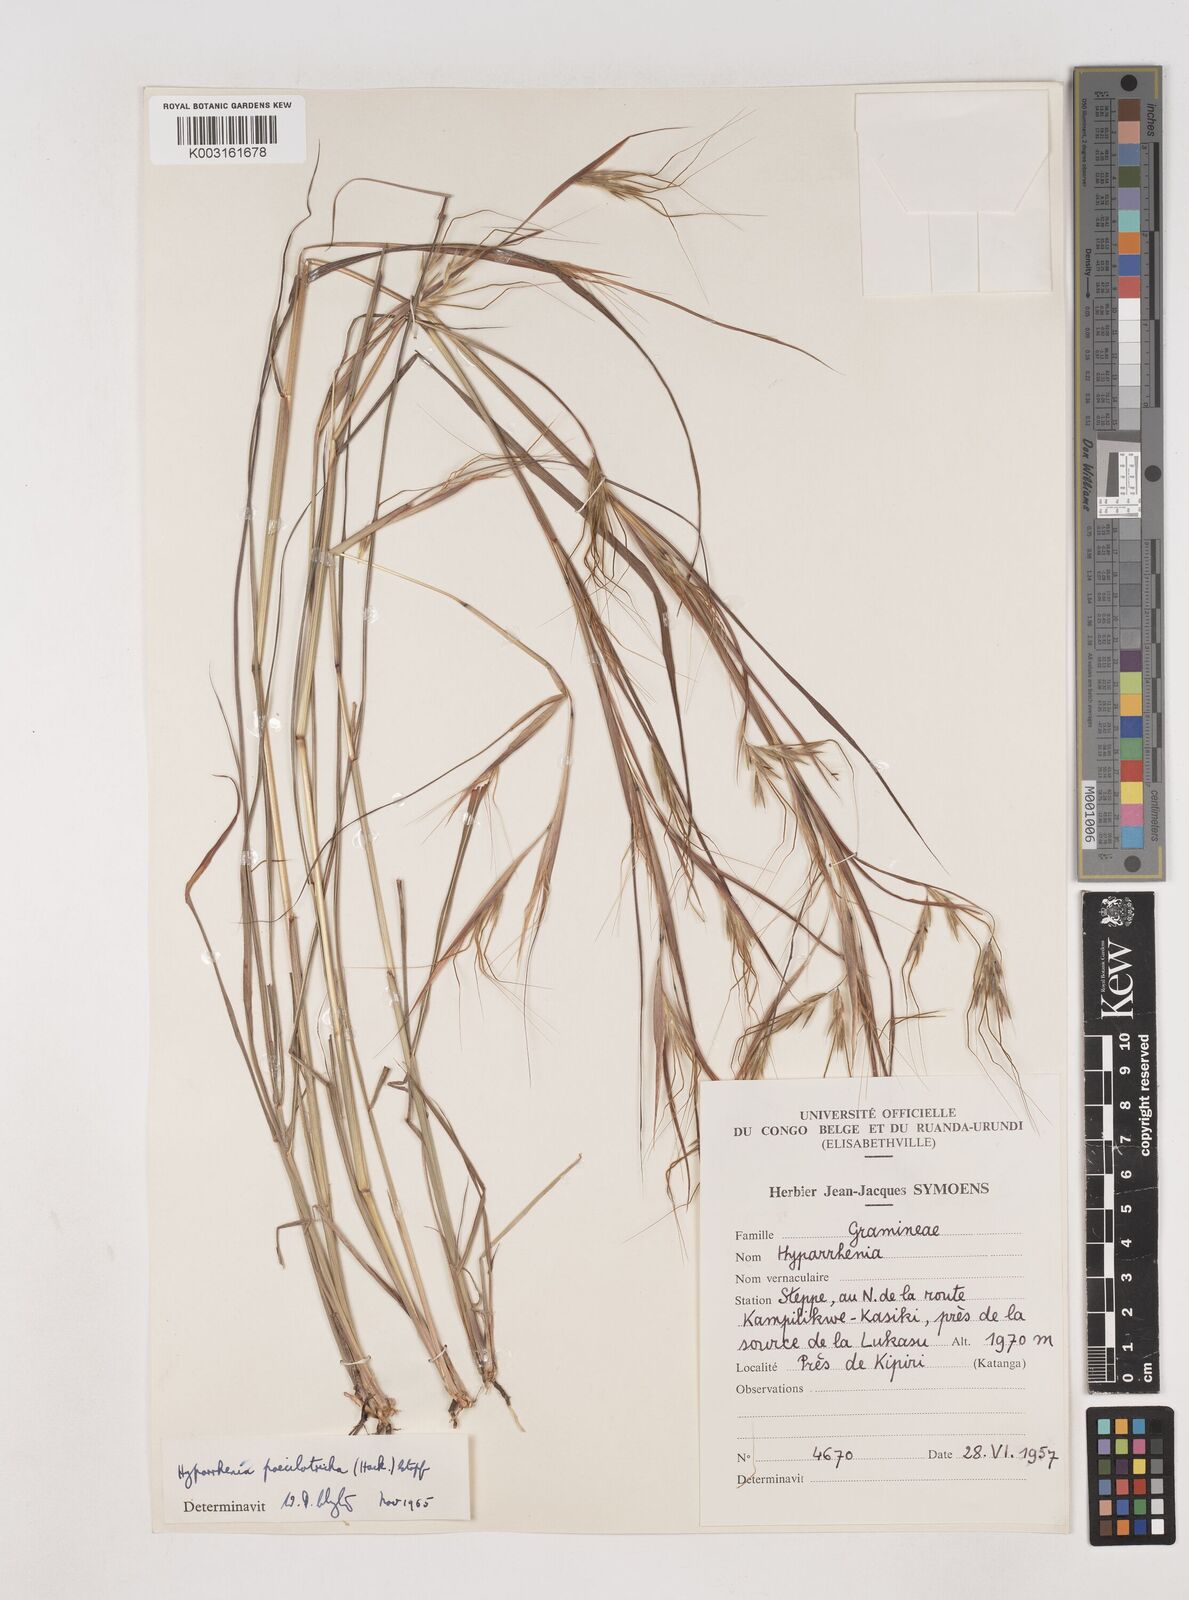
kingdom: Plantae
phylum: Tracheophyta
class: Liliopsida
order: Poales
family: Poaceae
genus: Hyparrhenia
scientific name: Hyparrhenia poecilotricha
